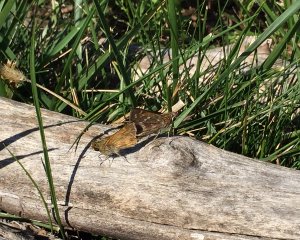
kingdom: Animalia
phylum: Arthropoda
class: Insecta
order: Lepidoptera
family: Hesperiidae
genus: Atalopedes
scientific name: Atalopedes campestris
